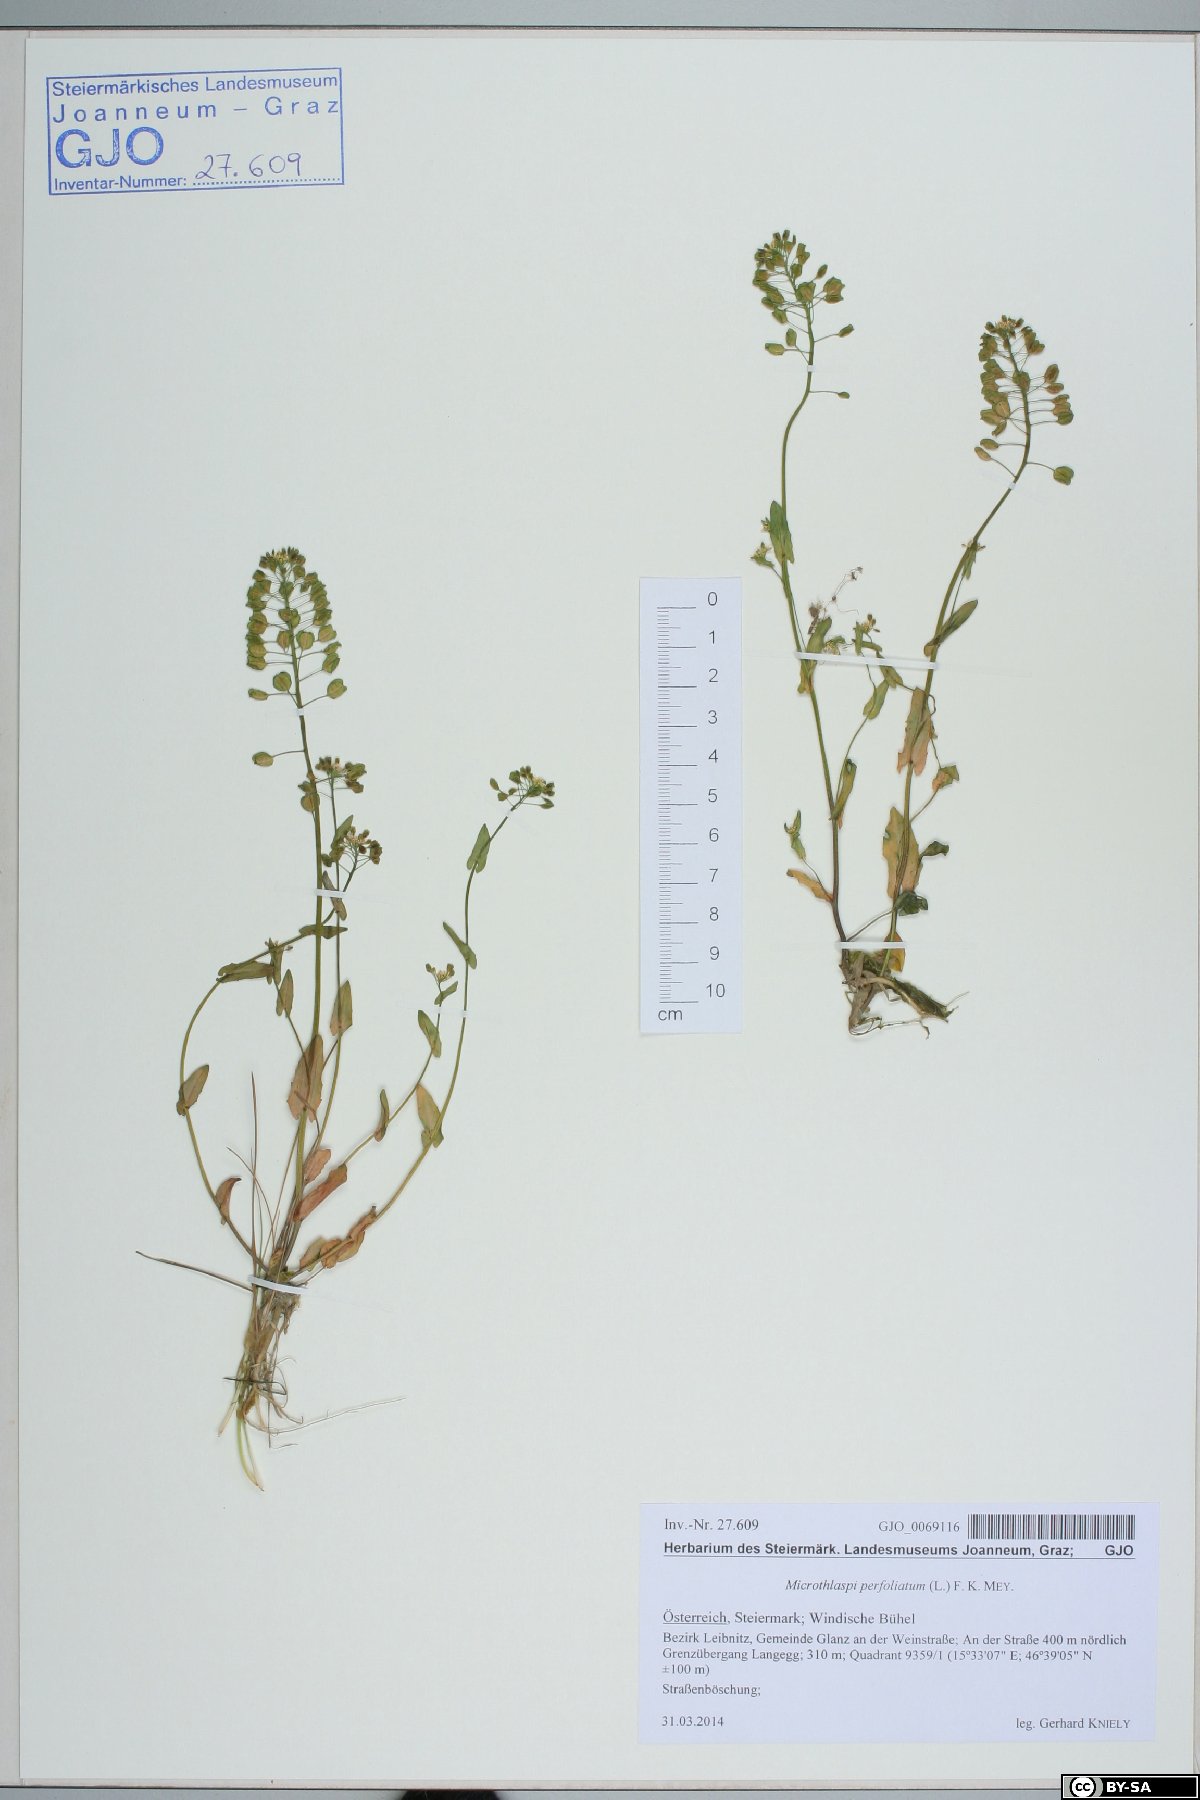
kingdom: Plantae
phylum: Tracheophyta
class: Magnoliopsida
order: Brassicales
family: Brassicaceae
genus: Noccaea
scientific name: Noccaea perfoliata
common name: Perfoliate pennycress
